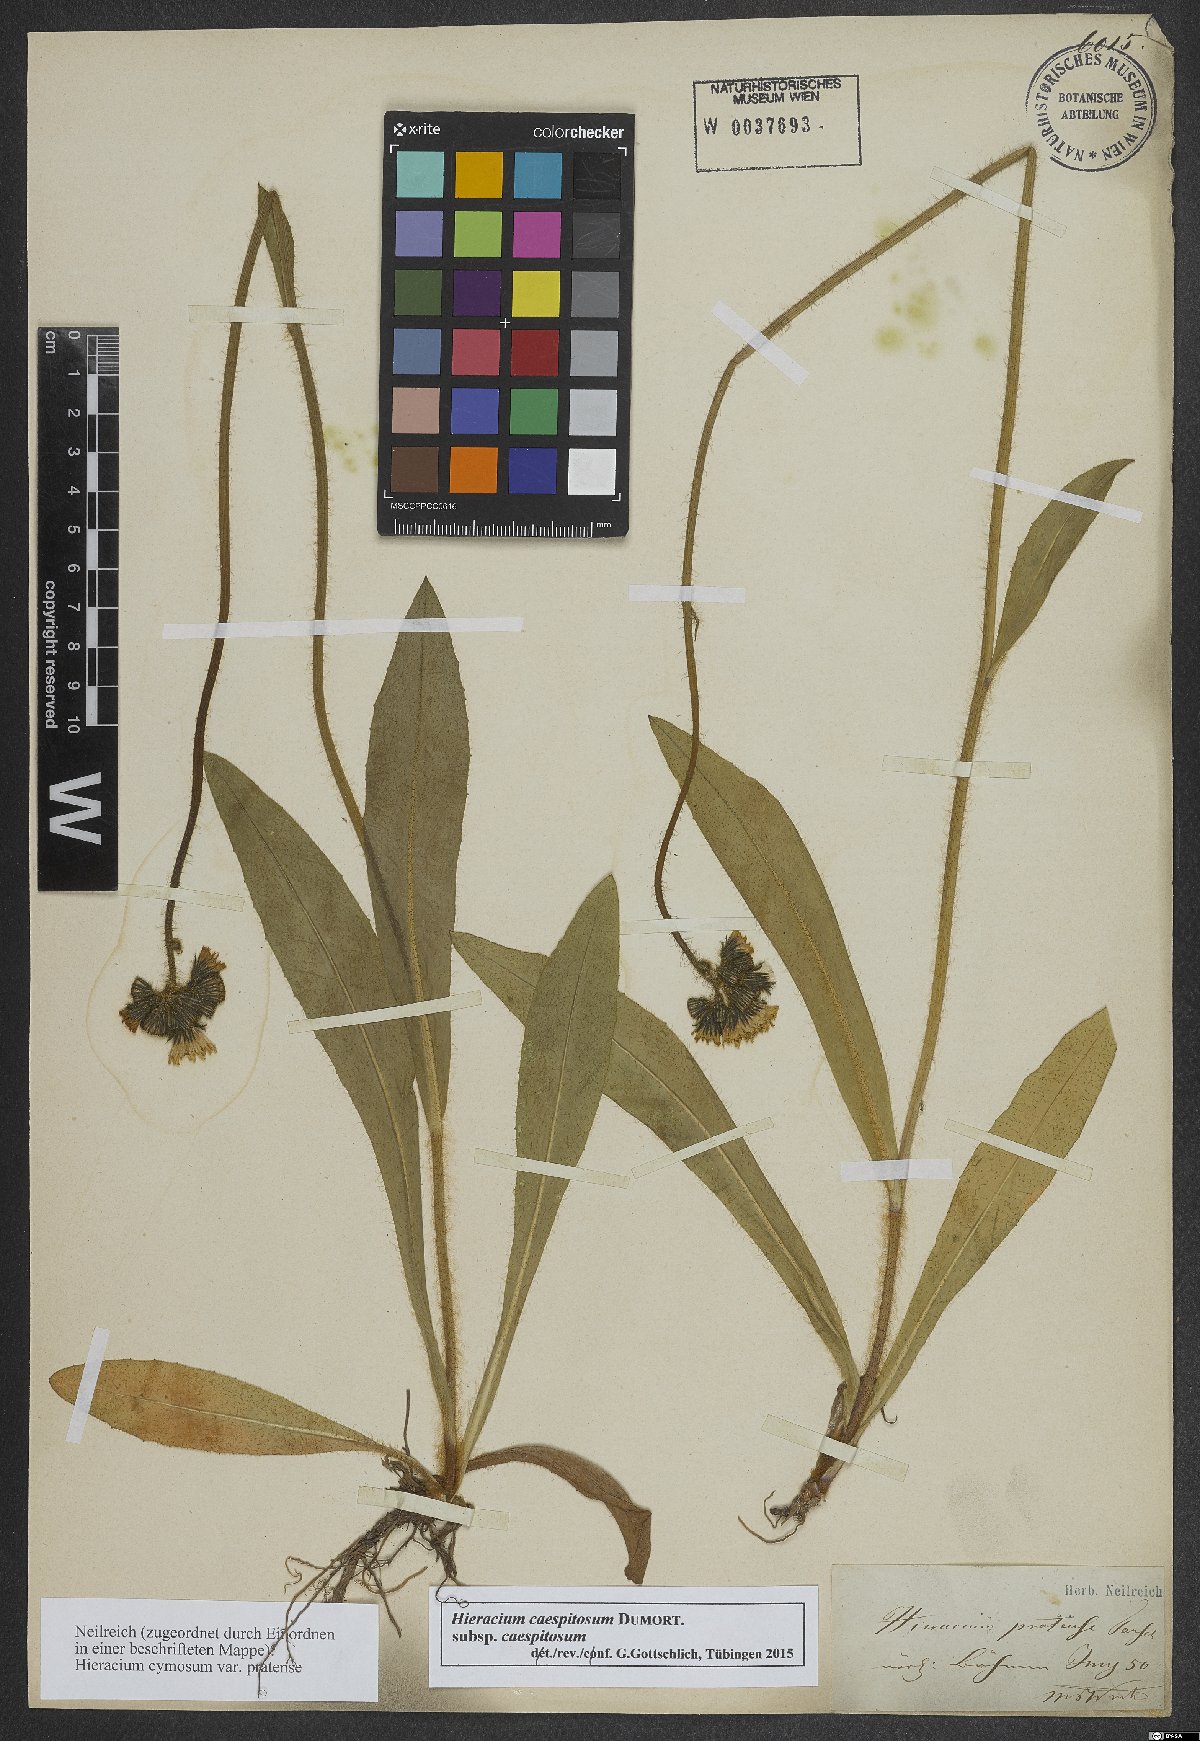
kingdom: Plantae
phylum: Tracheophyta
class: Magnoliopsida
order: Asterales
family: Asteraceae
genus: Pilosella
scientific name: Pilosella caespitosa
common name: Yellow fox-and-cubs
